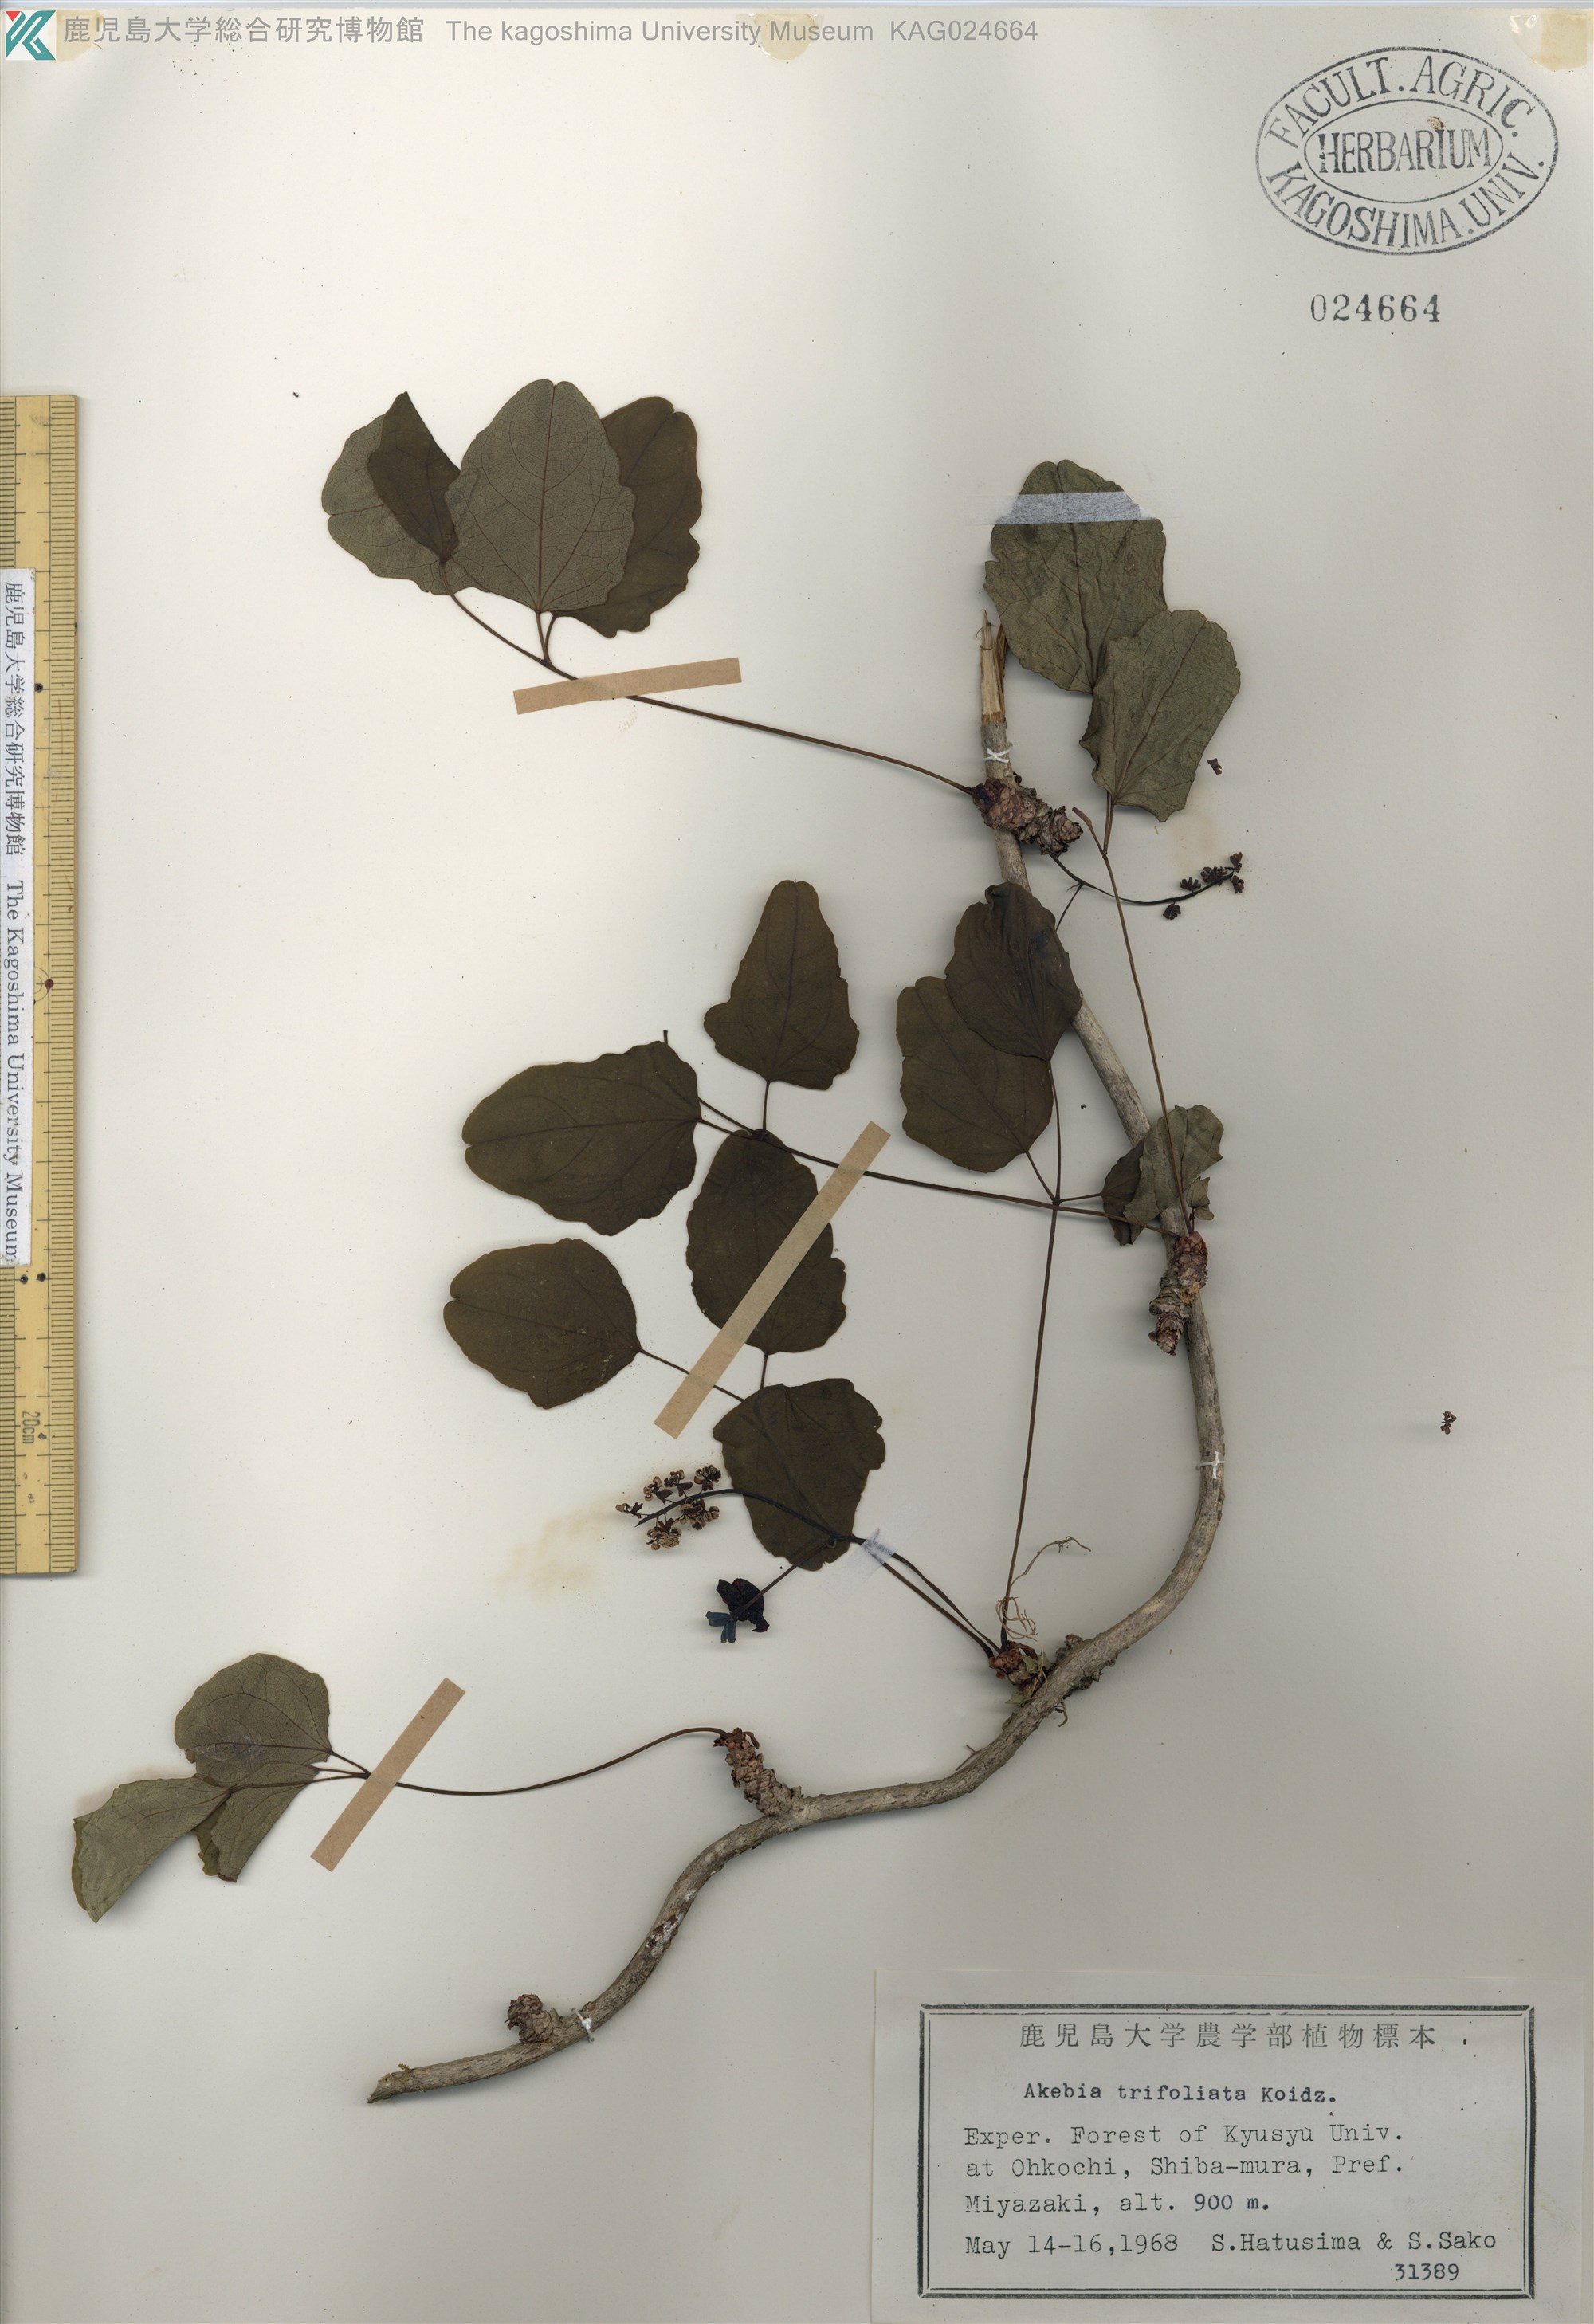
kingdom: Plantae
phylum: Tracheophyta
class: Magnoliopsida
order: Ranunculales
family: Lardizabalaceae
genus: Akebia
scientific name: Akebia trifoliata
